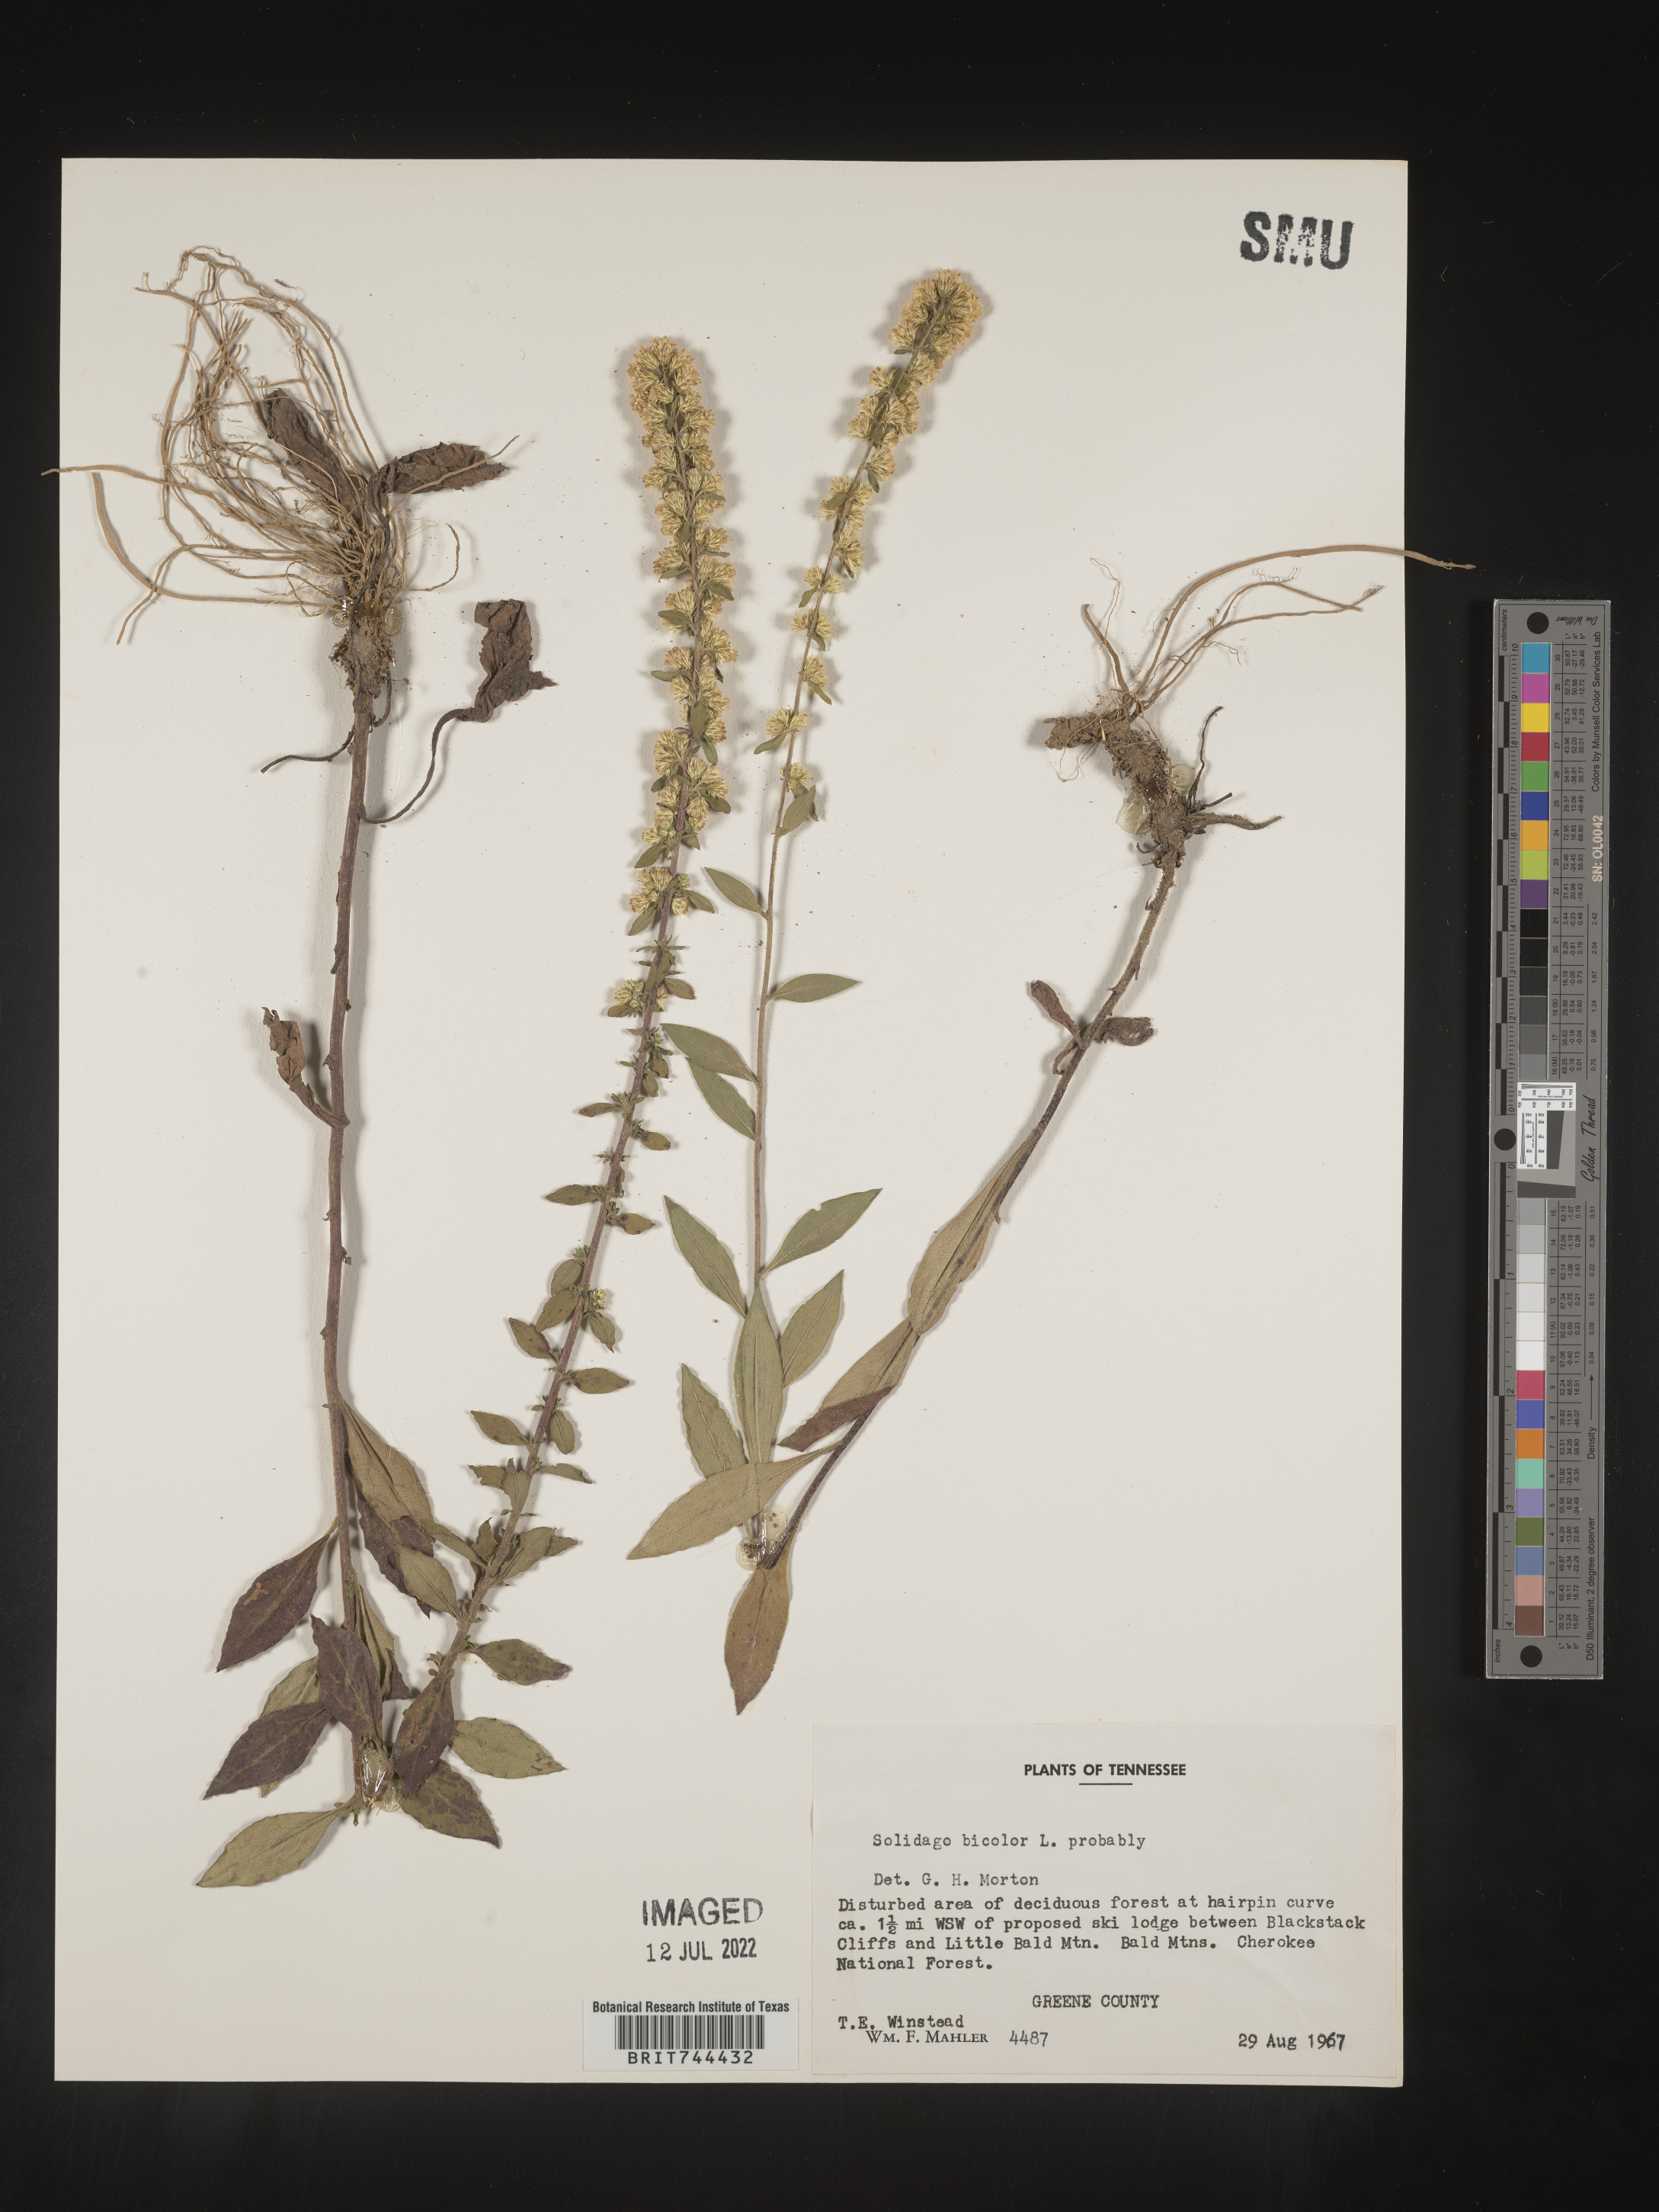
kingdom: Plantae
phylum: Tracheophyta
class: Magnoliopsida
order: Asterales
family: Asteraceae
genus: Solidago
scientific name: Solidago bicolor
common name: Silverrod
